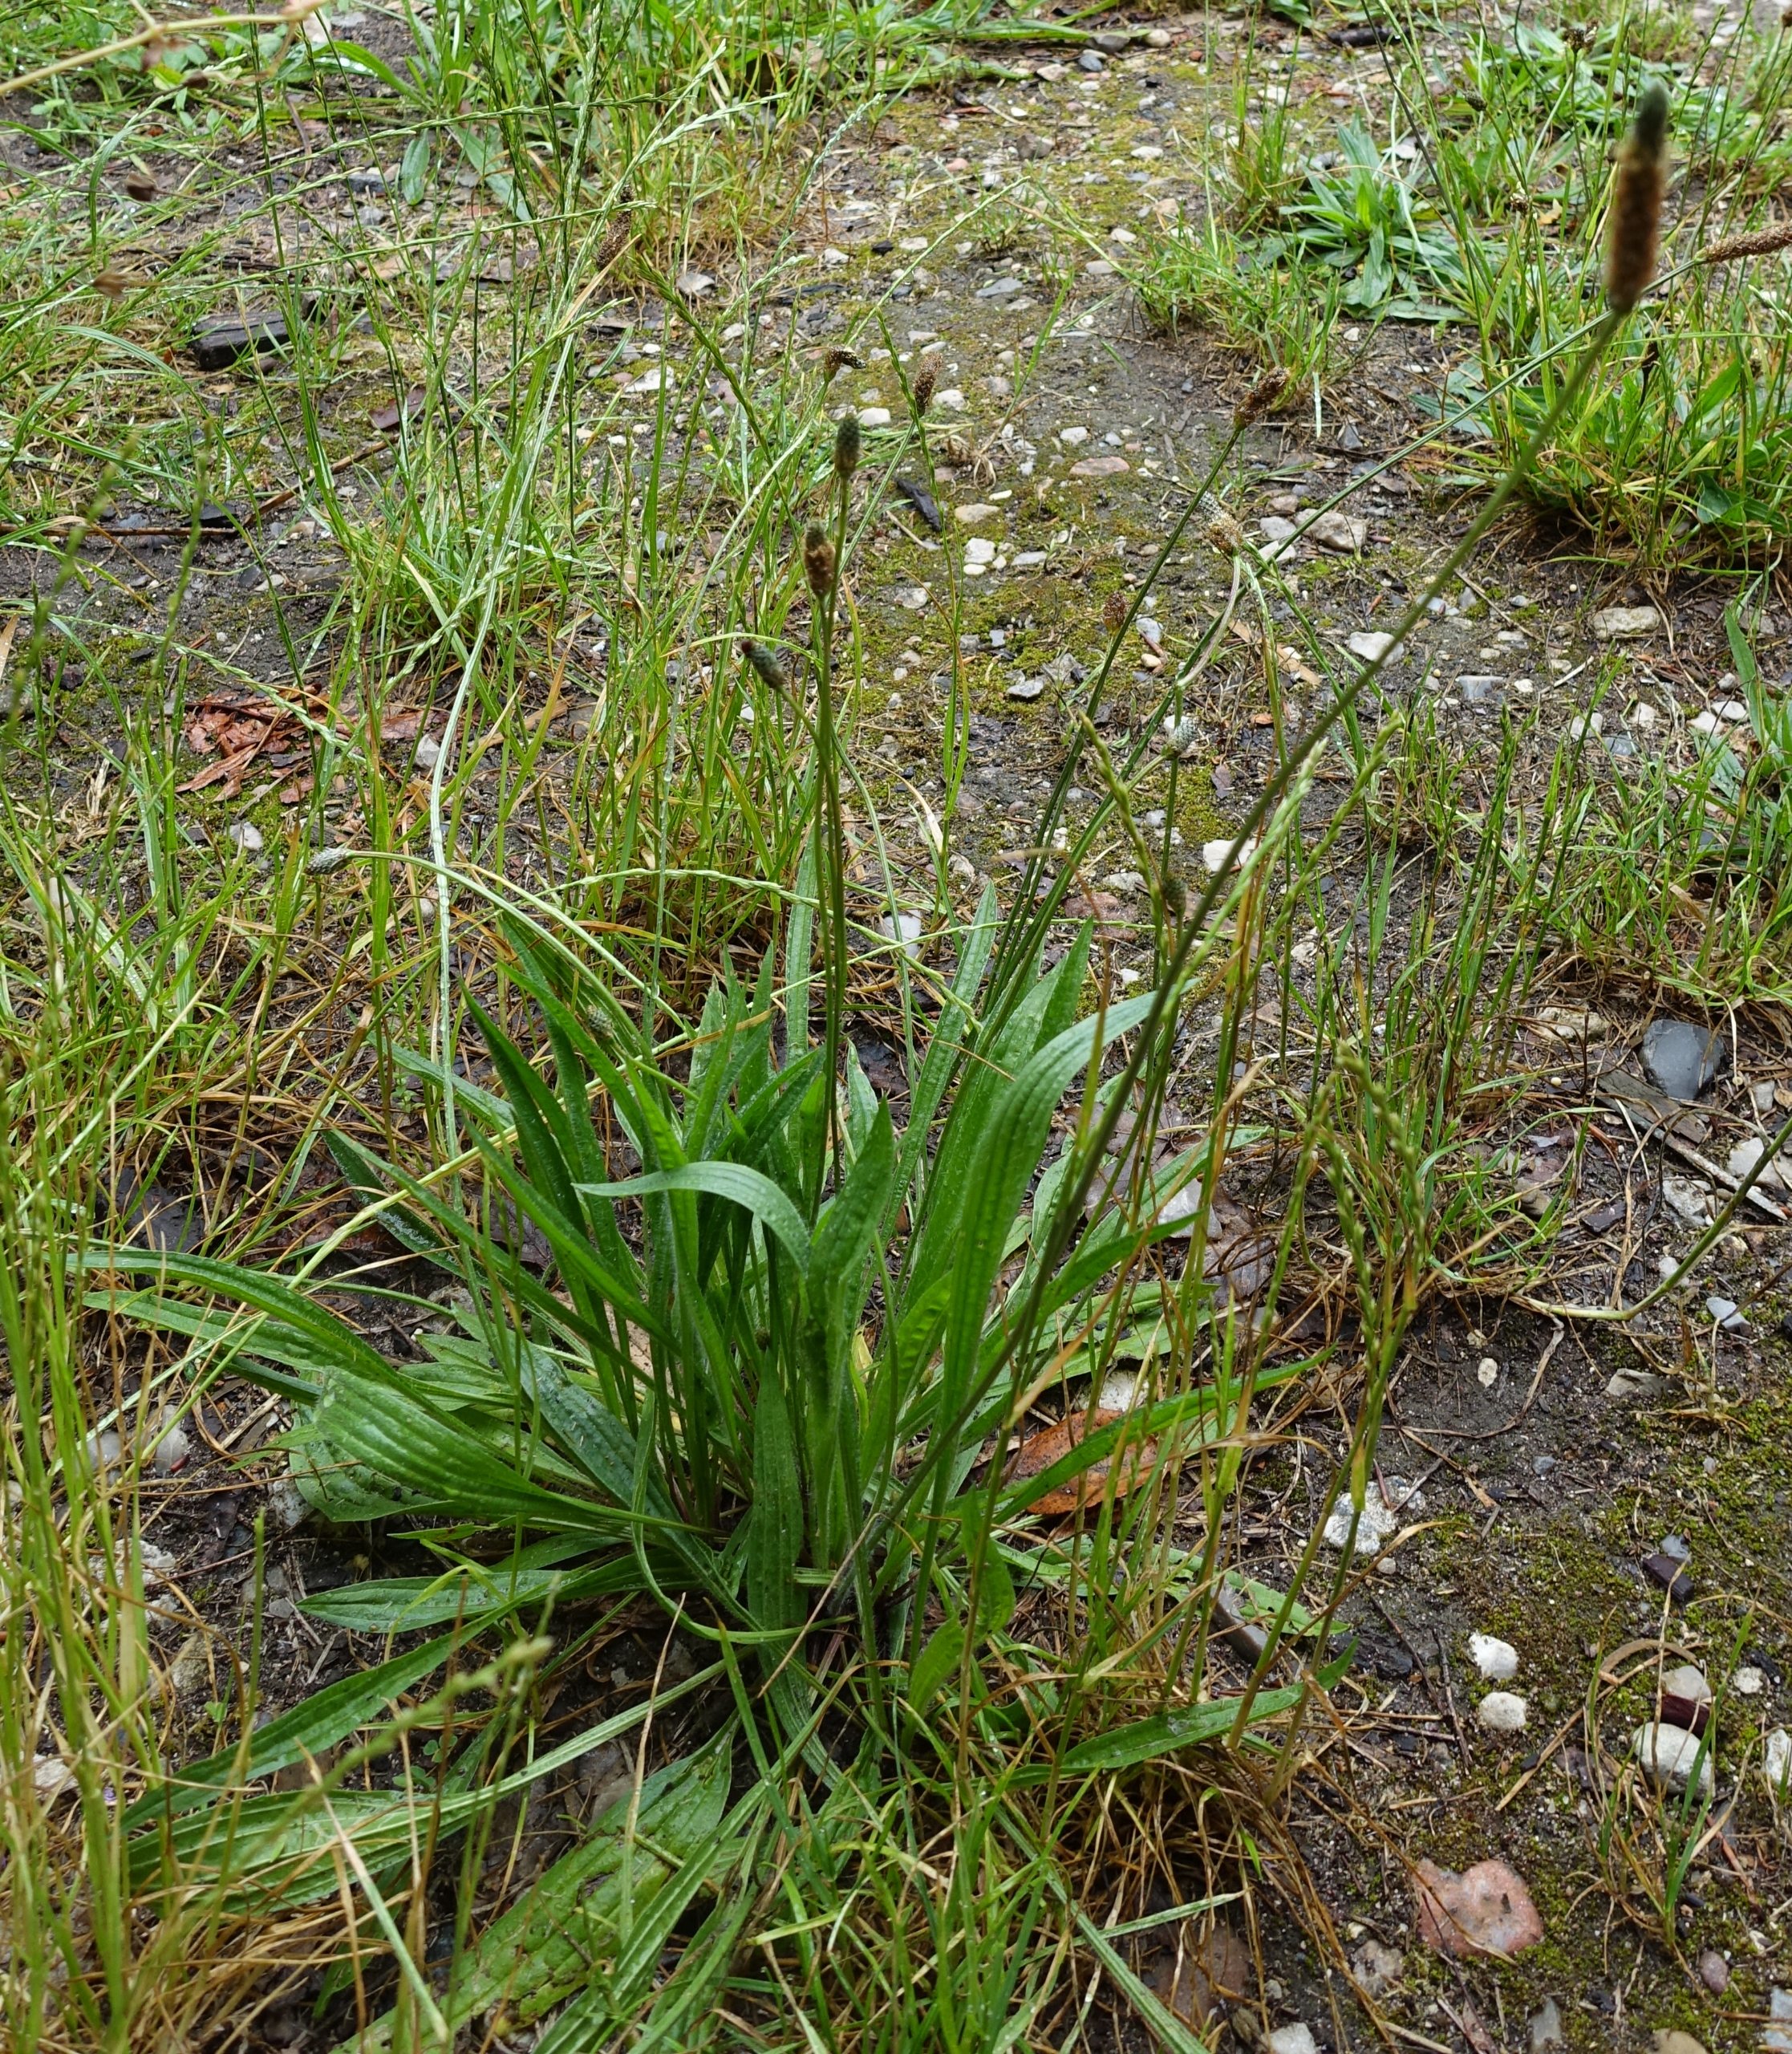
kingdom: Plantae
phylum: Tracheophyta
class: Magnoliopsida
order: Lamiales
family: Plantaginaceae
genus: Plantago
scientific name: Plantago lanceolata
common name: Lancet-vejbred
